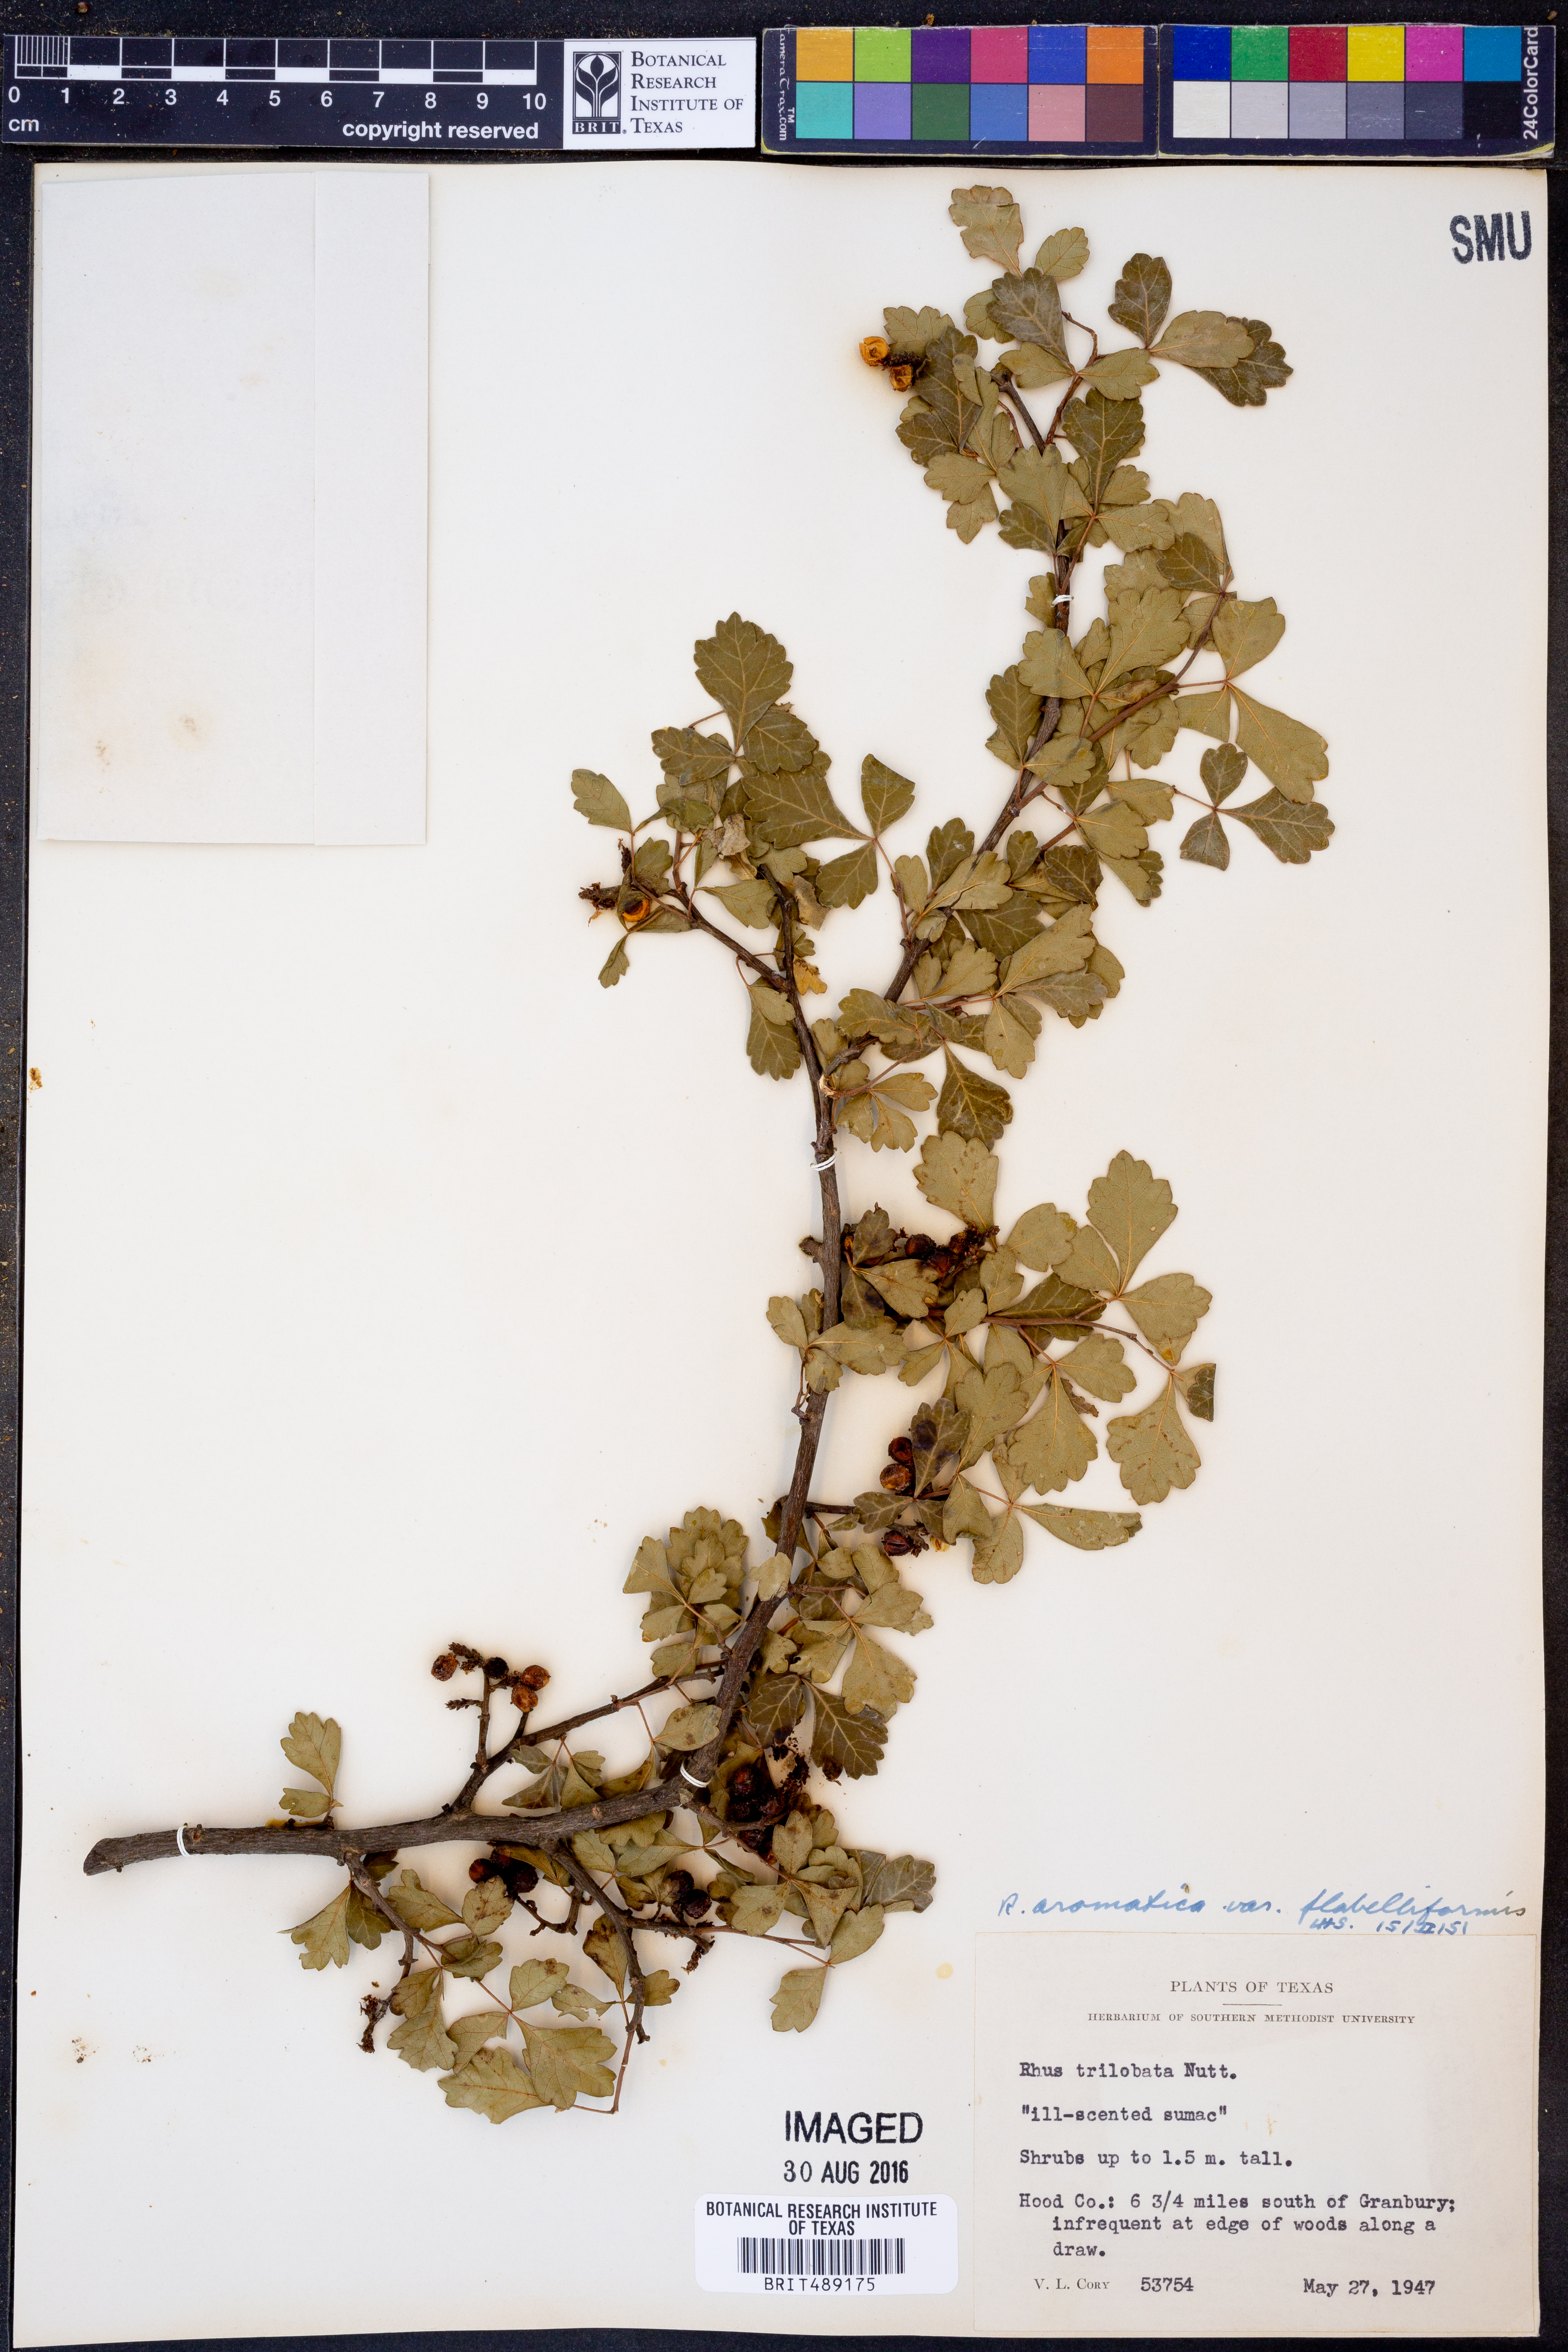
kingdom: Plantae
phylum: Tracheophyta
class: Magnoliopsida
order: Sapindales
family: Anacardiaceae
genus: Rhus
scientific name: Rhus trilobata
